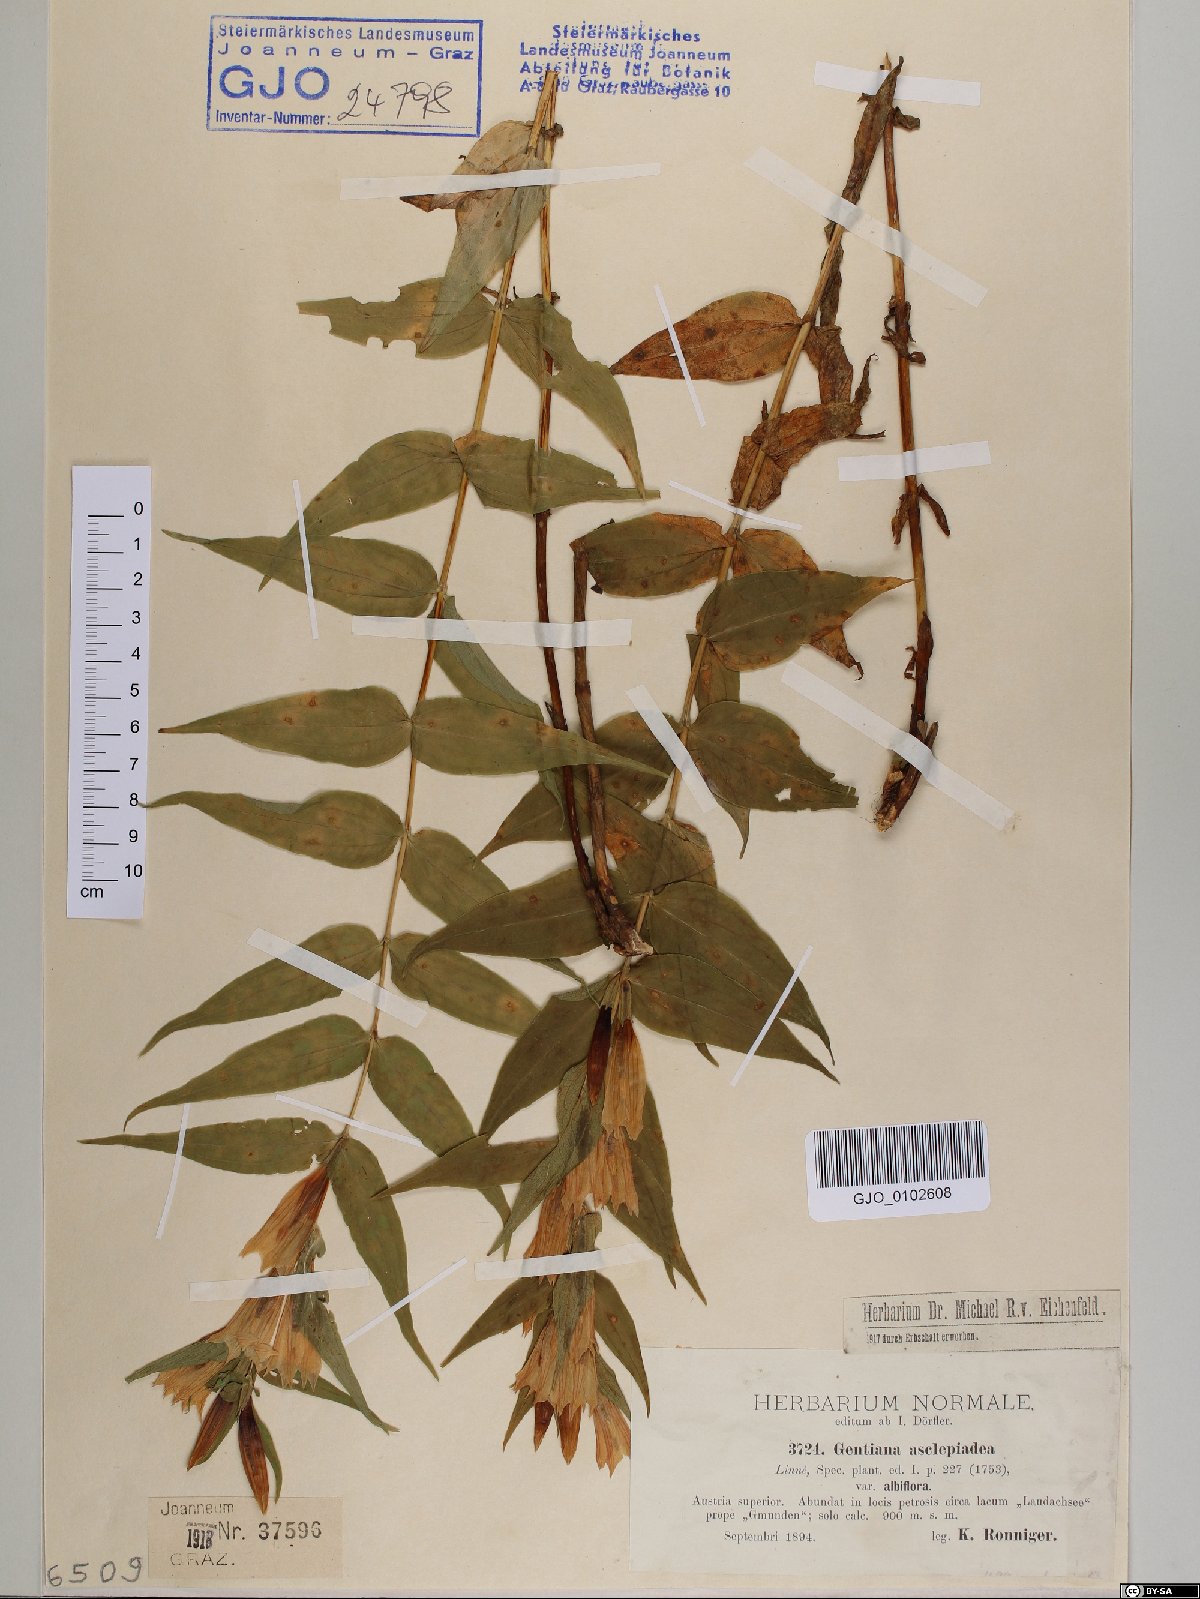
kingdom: Plantae
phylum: Tracheophyta
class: Magnoliopsida
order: Gentianales
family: Gentianaceae
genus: Gentiana
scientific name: Gentiana asclepiadea
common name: Willow gentian
